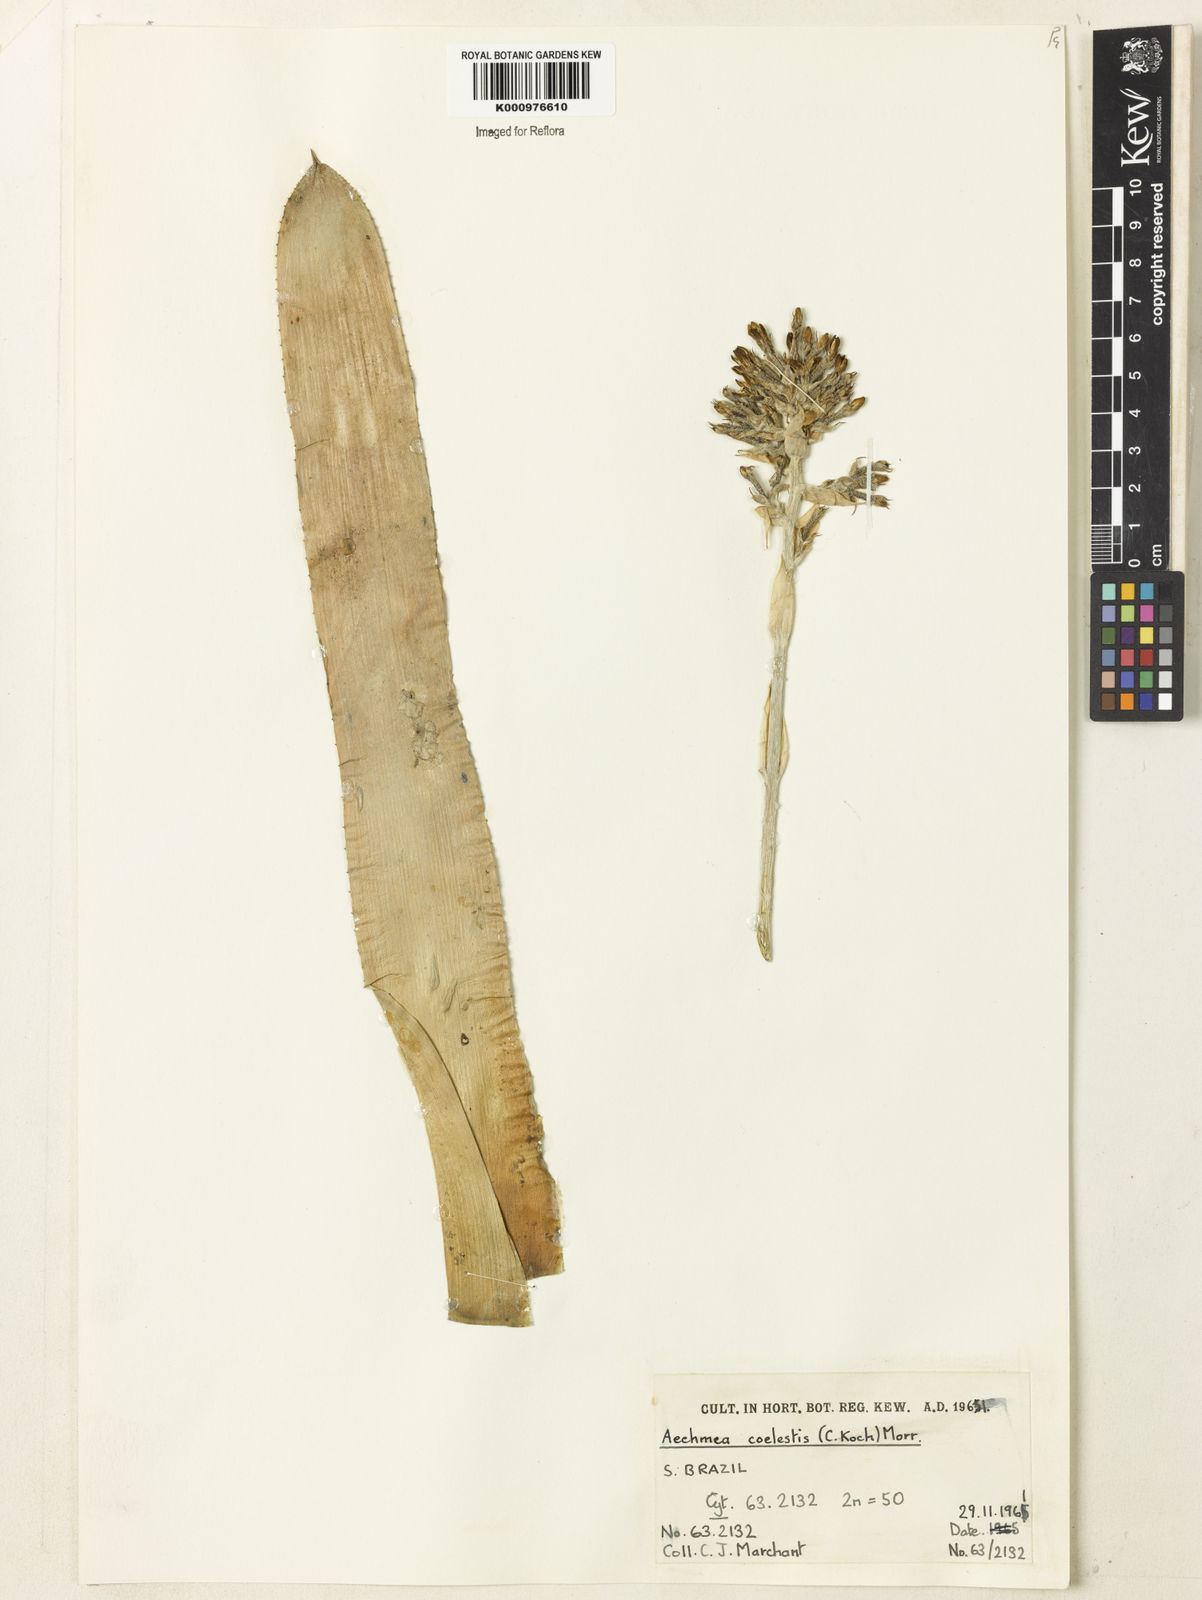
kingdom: Plantae
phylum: Tracheophyta
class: Liliopsida
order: Poales
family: Bromeliaceae
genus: Aechmea
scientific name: Aechmea coelestis
